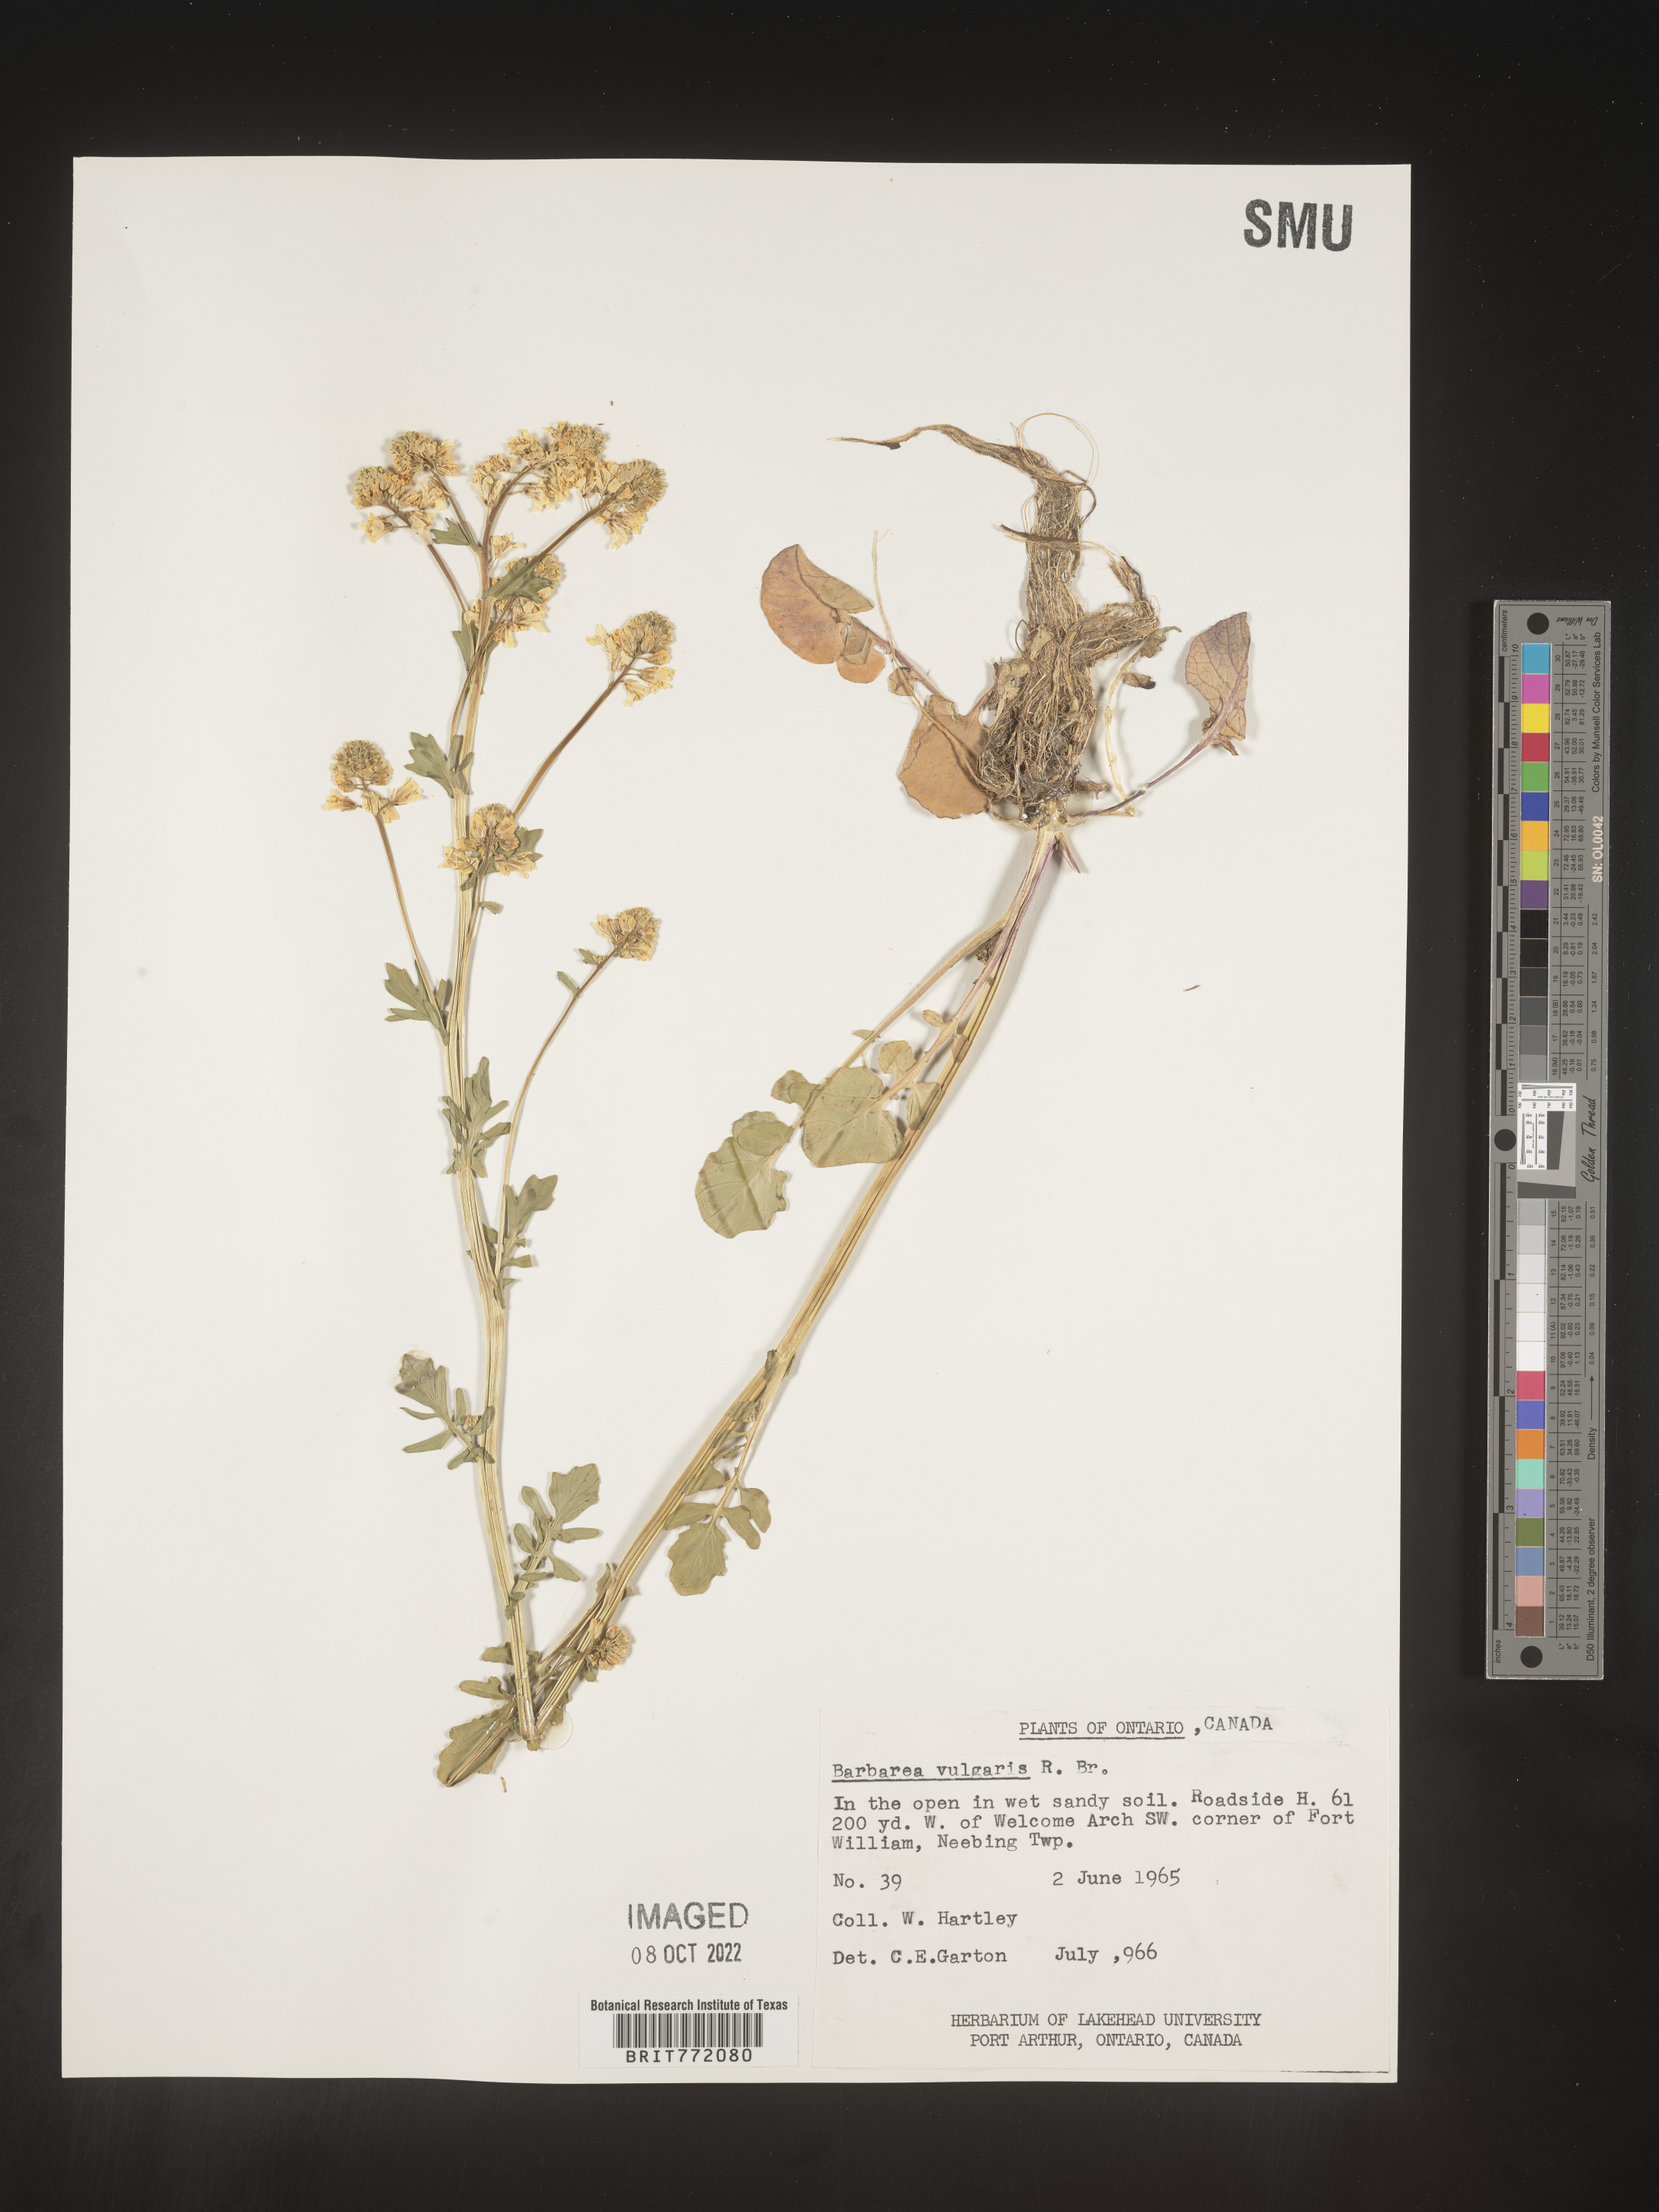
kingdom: Plantae
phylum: Tracheophyta
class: Magnoliopsida
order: Brassicales
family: Brassicaceae
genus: Barbarea
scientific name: Barbarea vulgaris
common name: Cressy-greens
